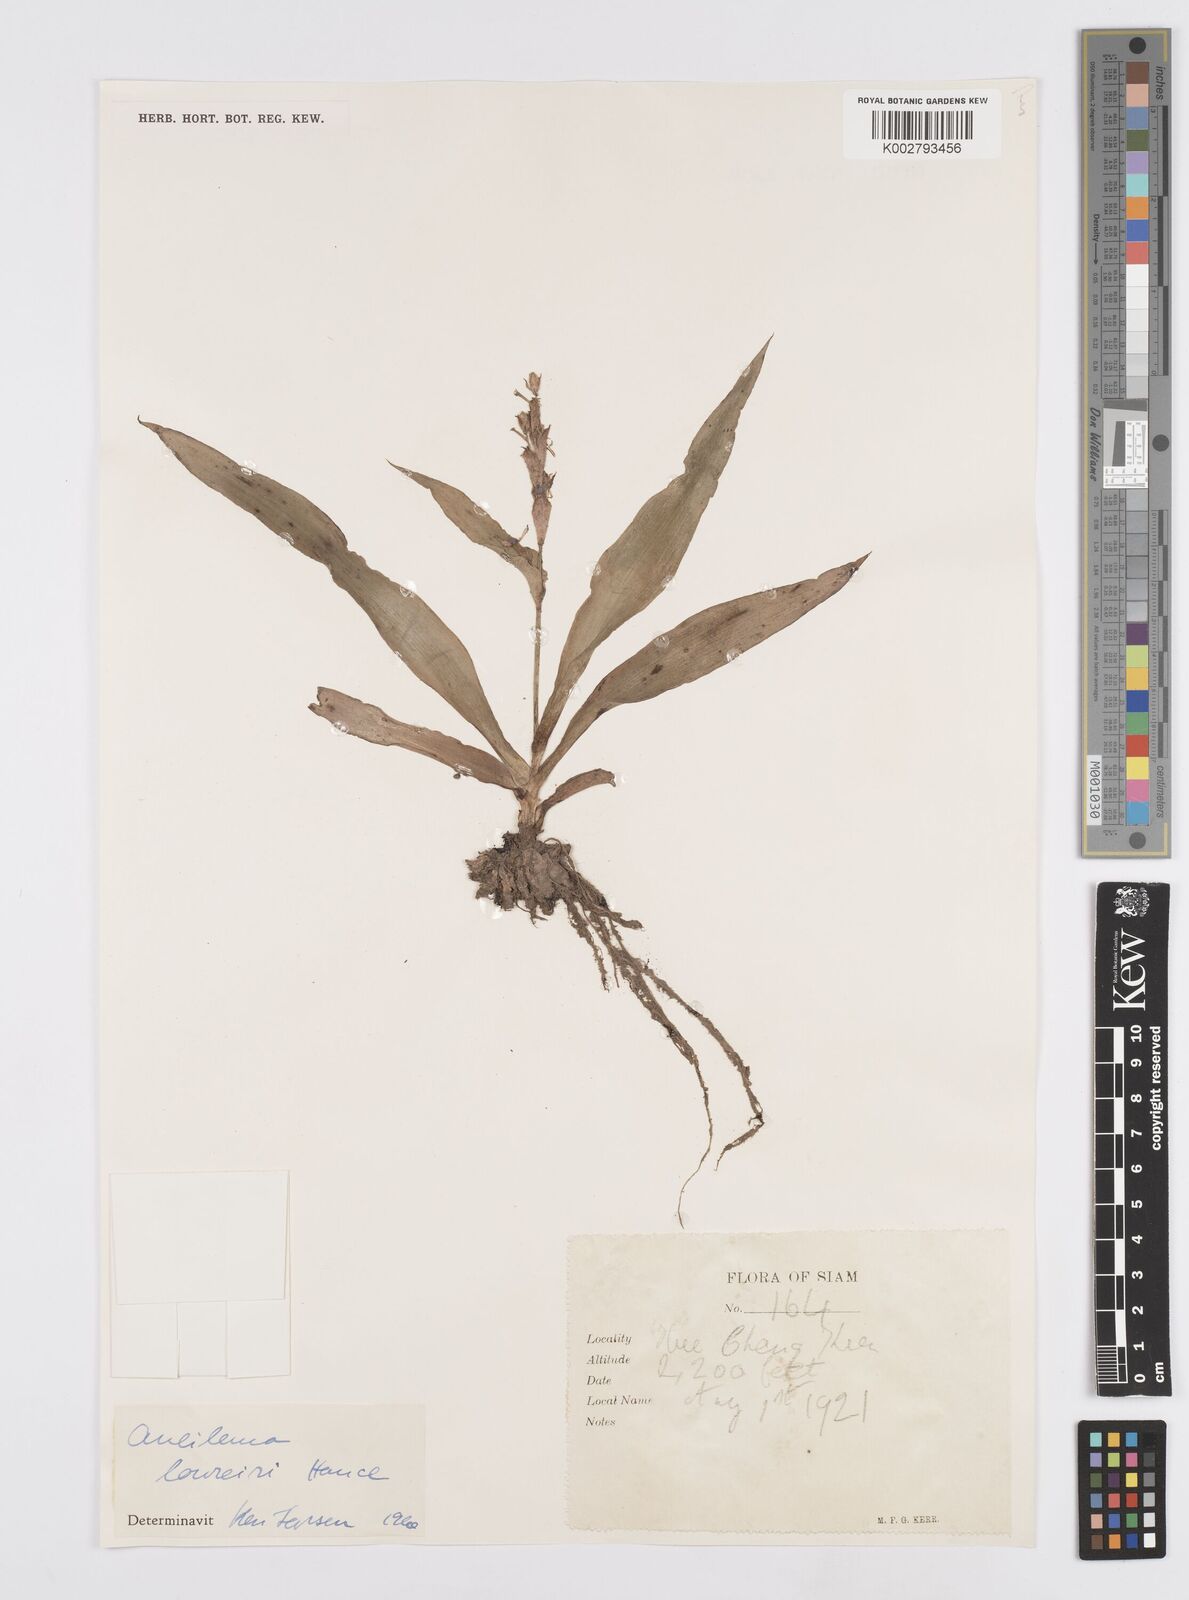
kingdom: Plantae
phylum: Tracheophyta
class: Liliopsida
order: Commelinales
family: Commelinaceae
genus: Murdannia
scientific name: Murdannia edulis
